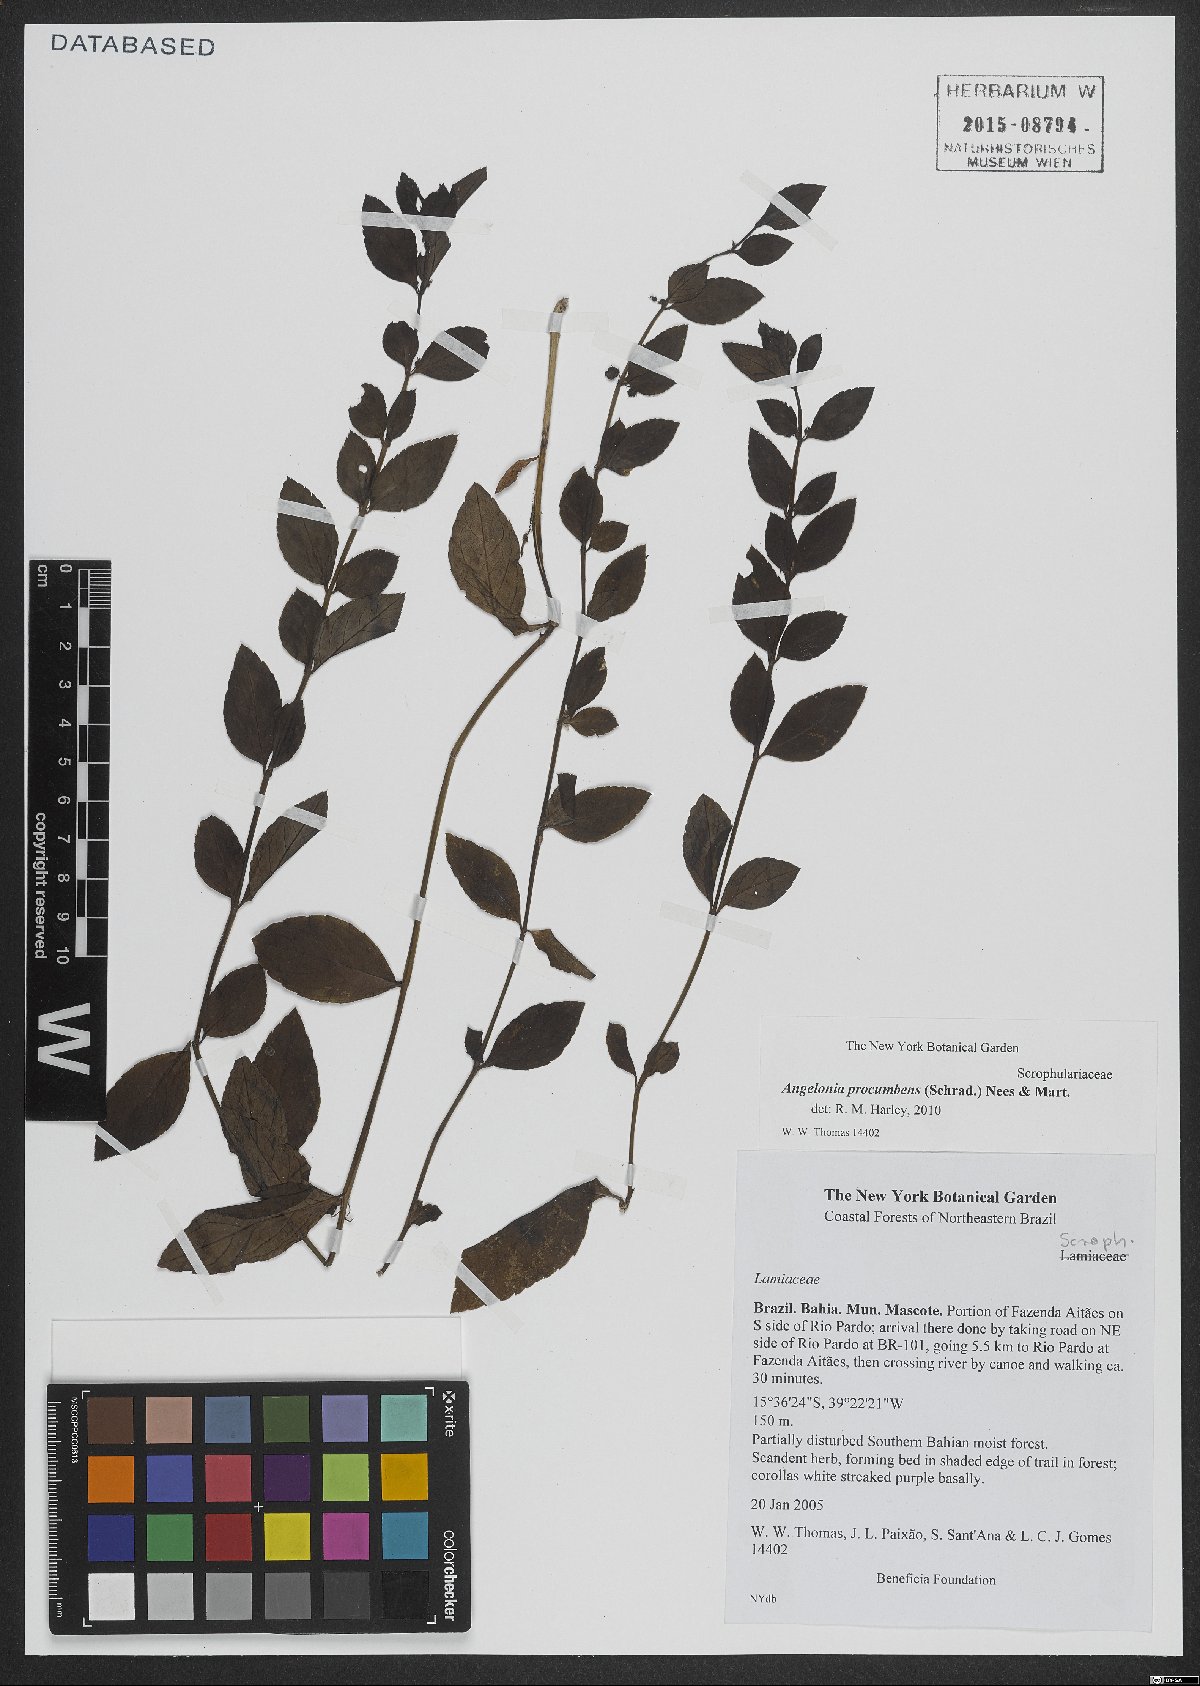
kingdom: Plantae
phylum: Tracheophyta
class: Magnoliopsida
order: Lamiales
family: Plantaginaceae
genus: Angelonia
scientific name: Angelonia procumbens
